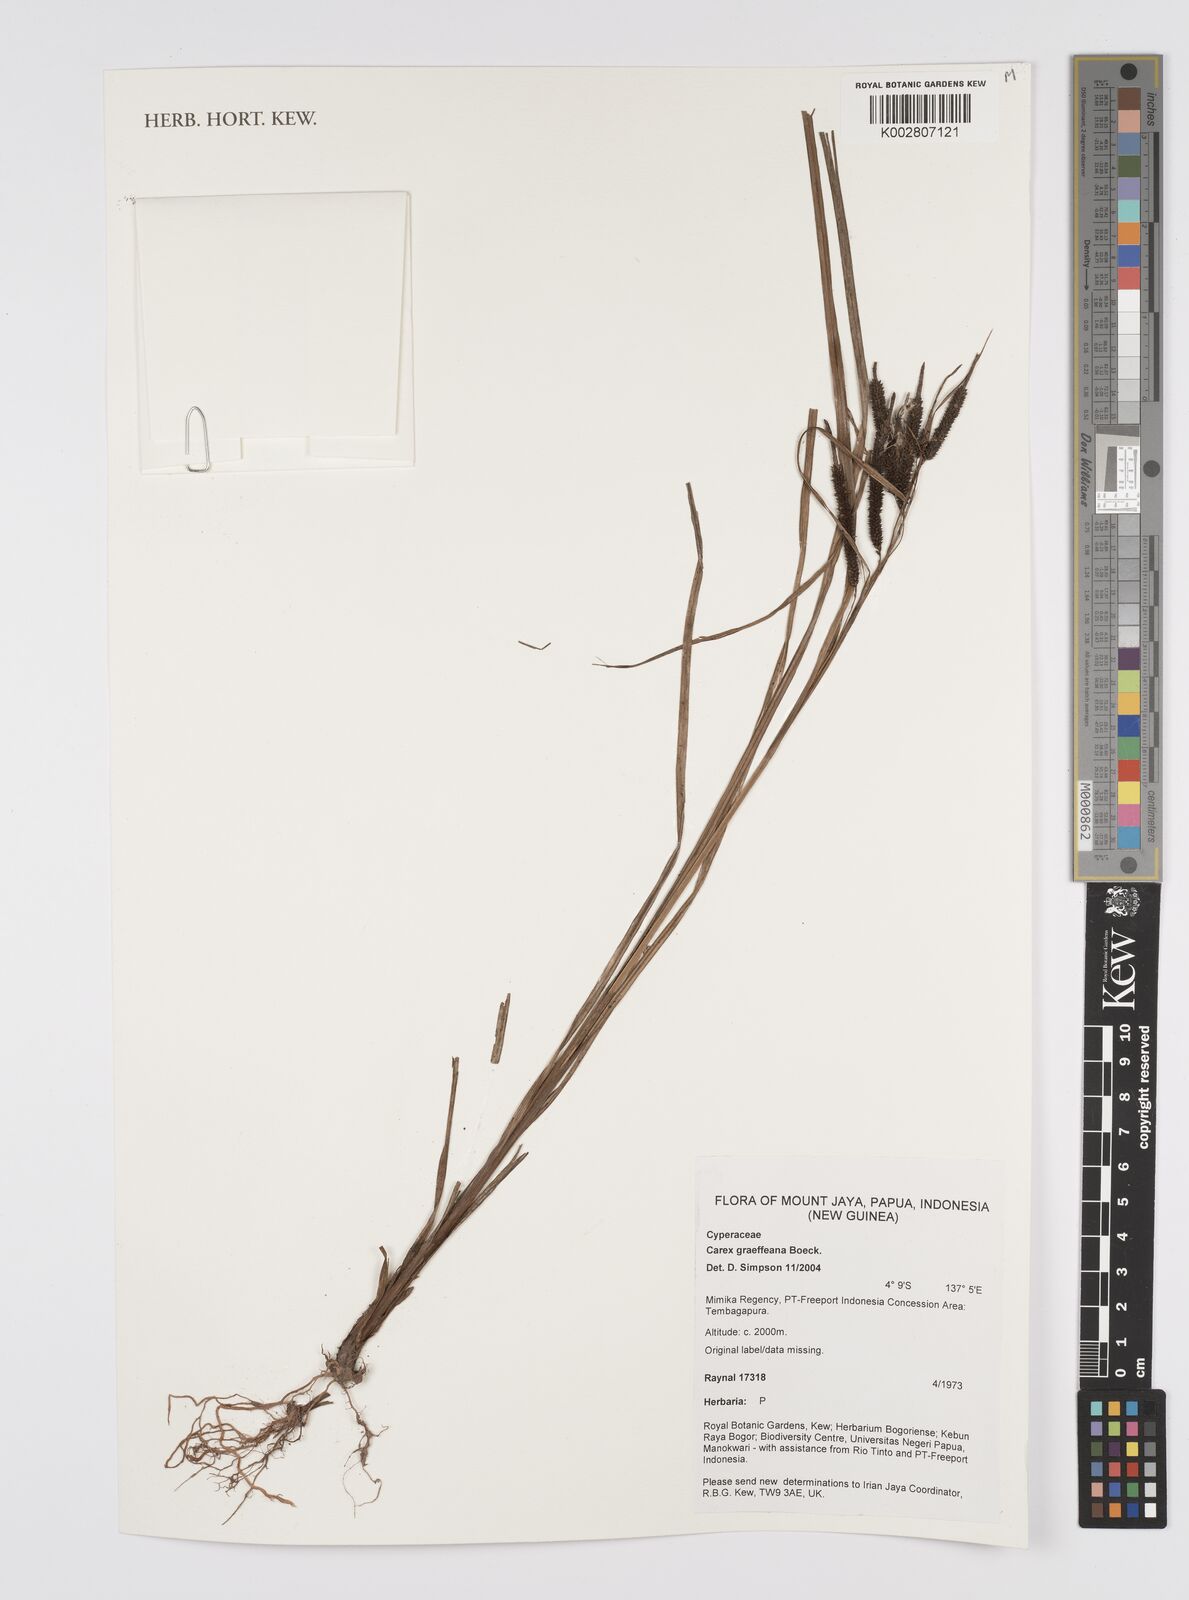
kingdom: Plantae
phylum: Tracheophyta
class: Liliopsida
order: Poales
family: Cyperaceae
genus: Carex
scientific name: Carex graeffeana
